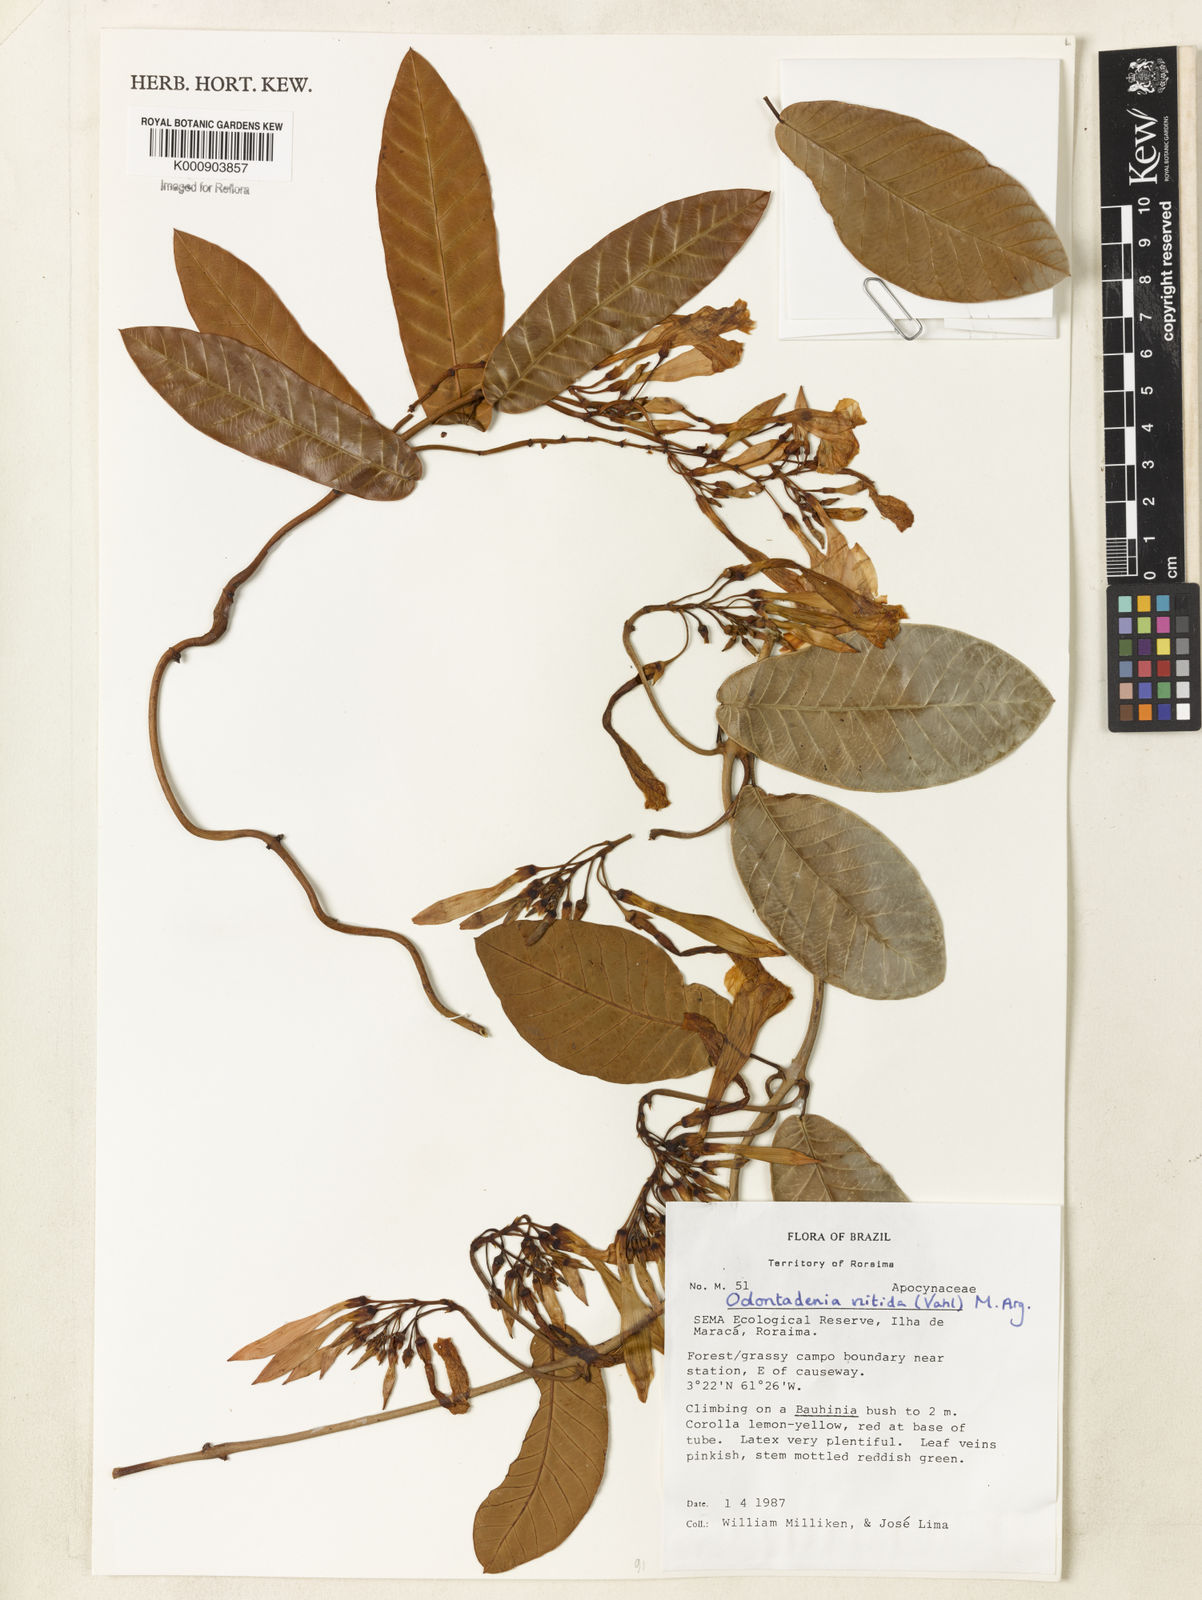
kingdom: Plantae
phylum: Tracheophyta
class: Magnoliopsida
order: Gentianales
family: Apocynaceae
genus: Odontadenia
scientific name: Odontadenia
